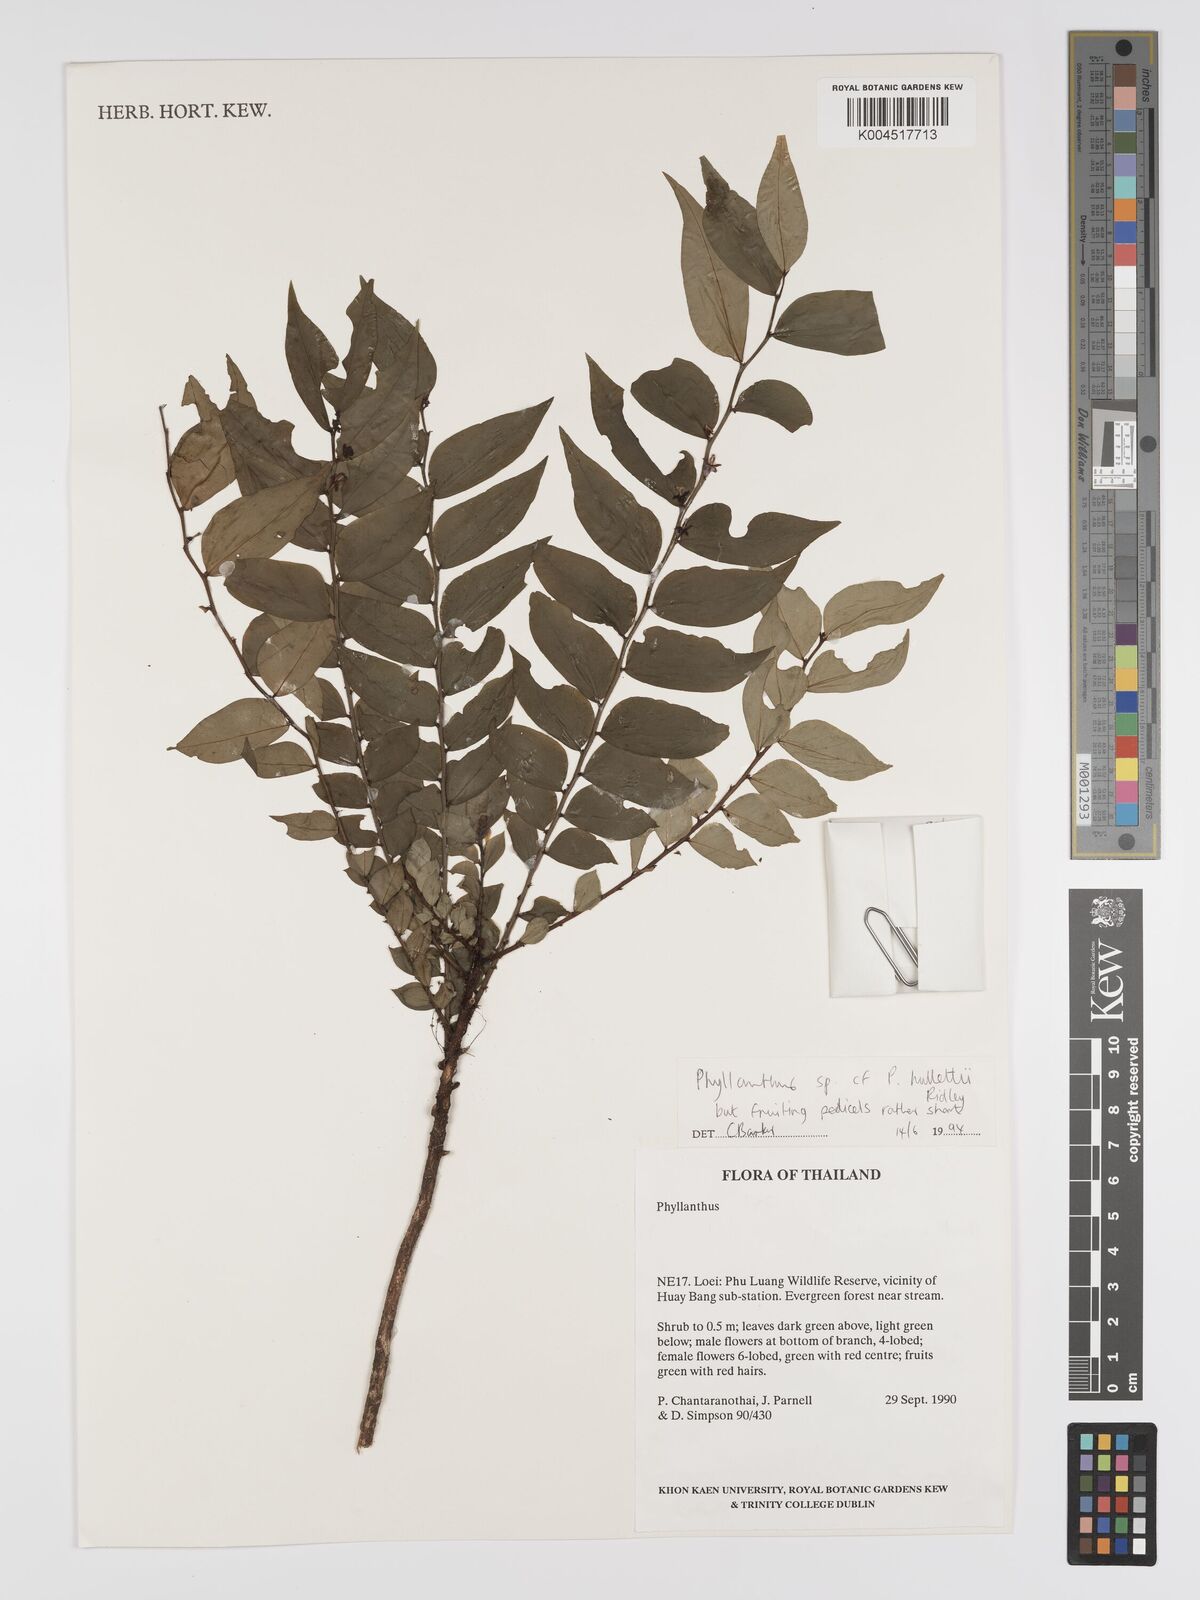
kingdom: Plantae
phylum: Tracheophyta
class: Magnoliopsida
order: Malpighiales
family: Phyllanthaceae
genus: Phyllanthus
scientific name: Phyllanthus gracilipes
